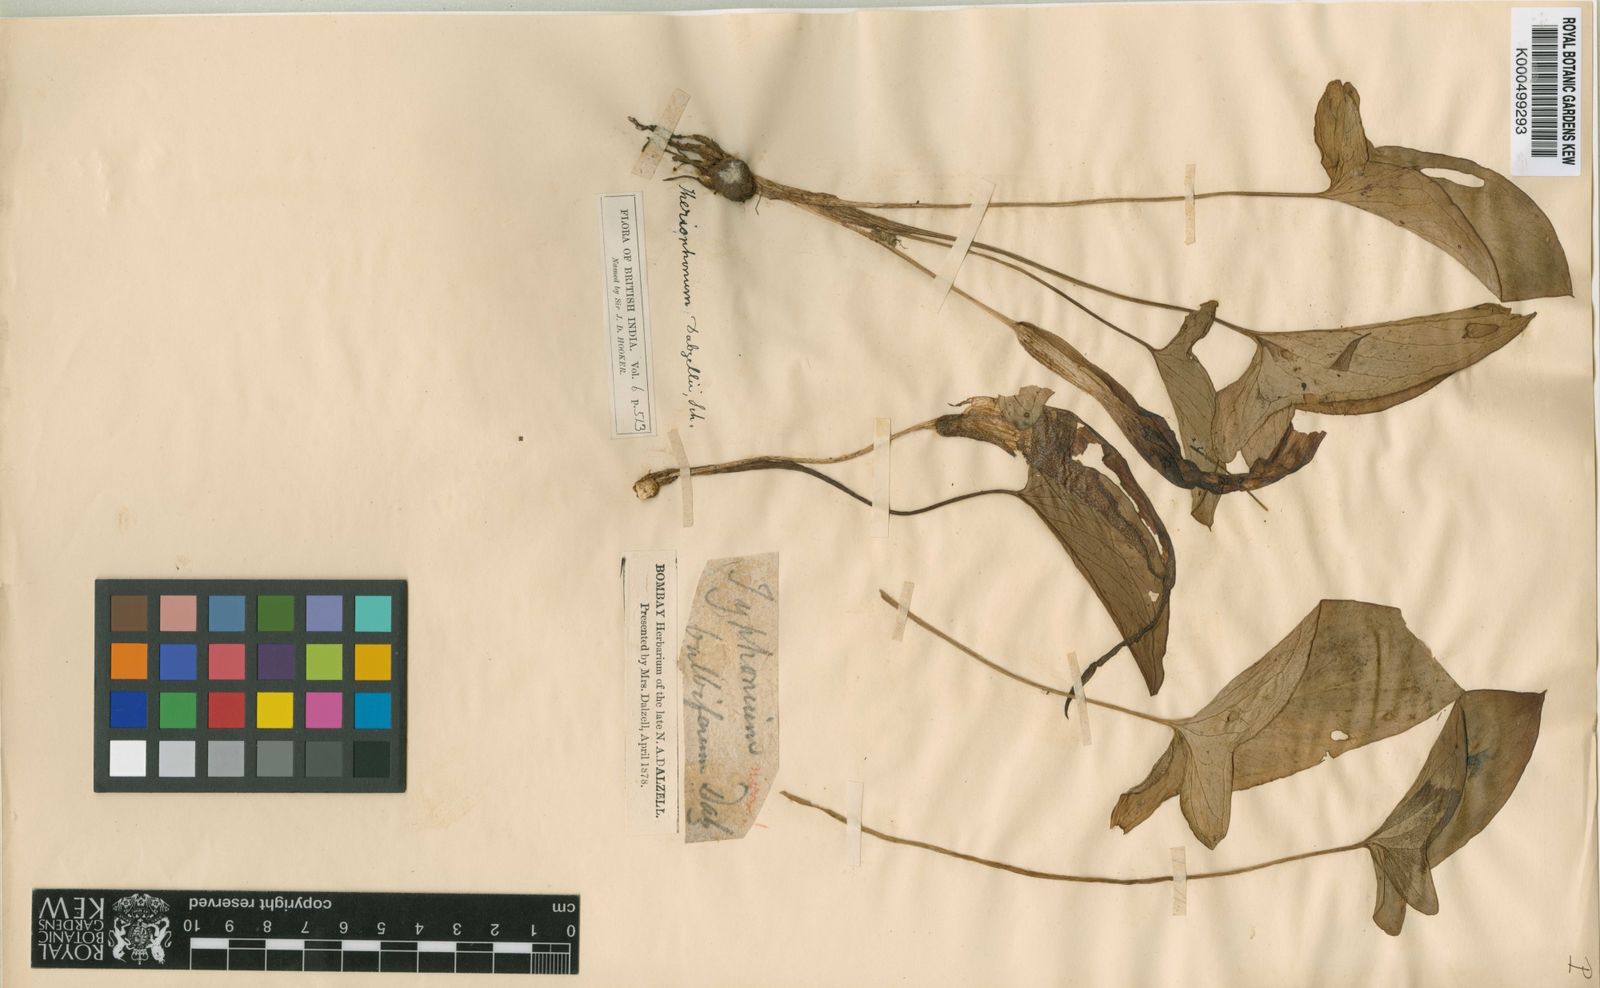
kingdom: Plantae
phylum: Tracheophyta
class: Liliopsida
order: Alismatales
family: Araceae
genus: Typhonium
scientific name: Typhonium bulbiferum
